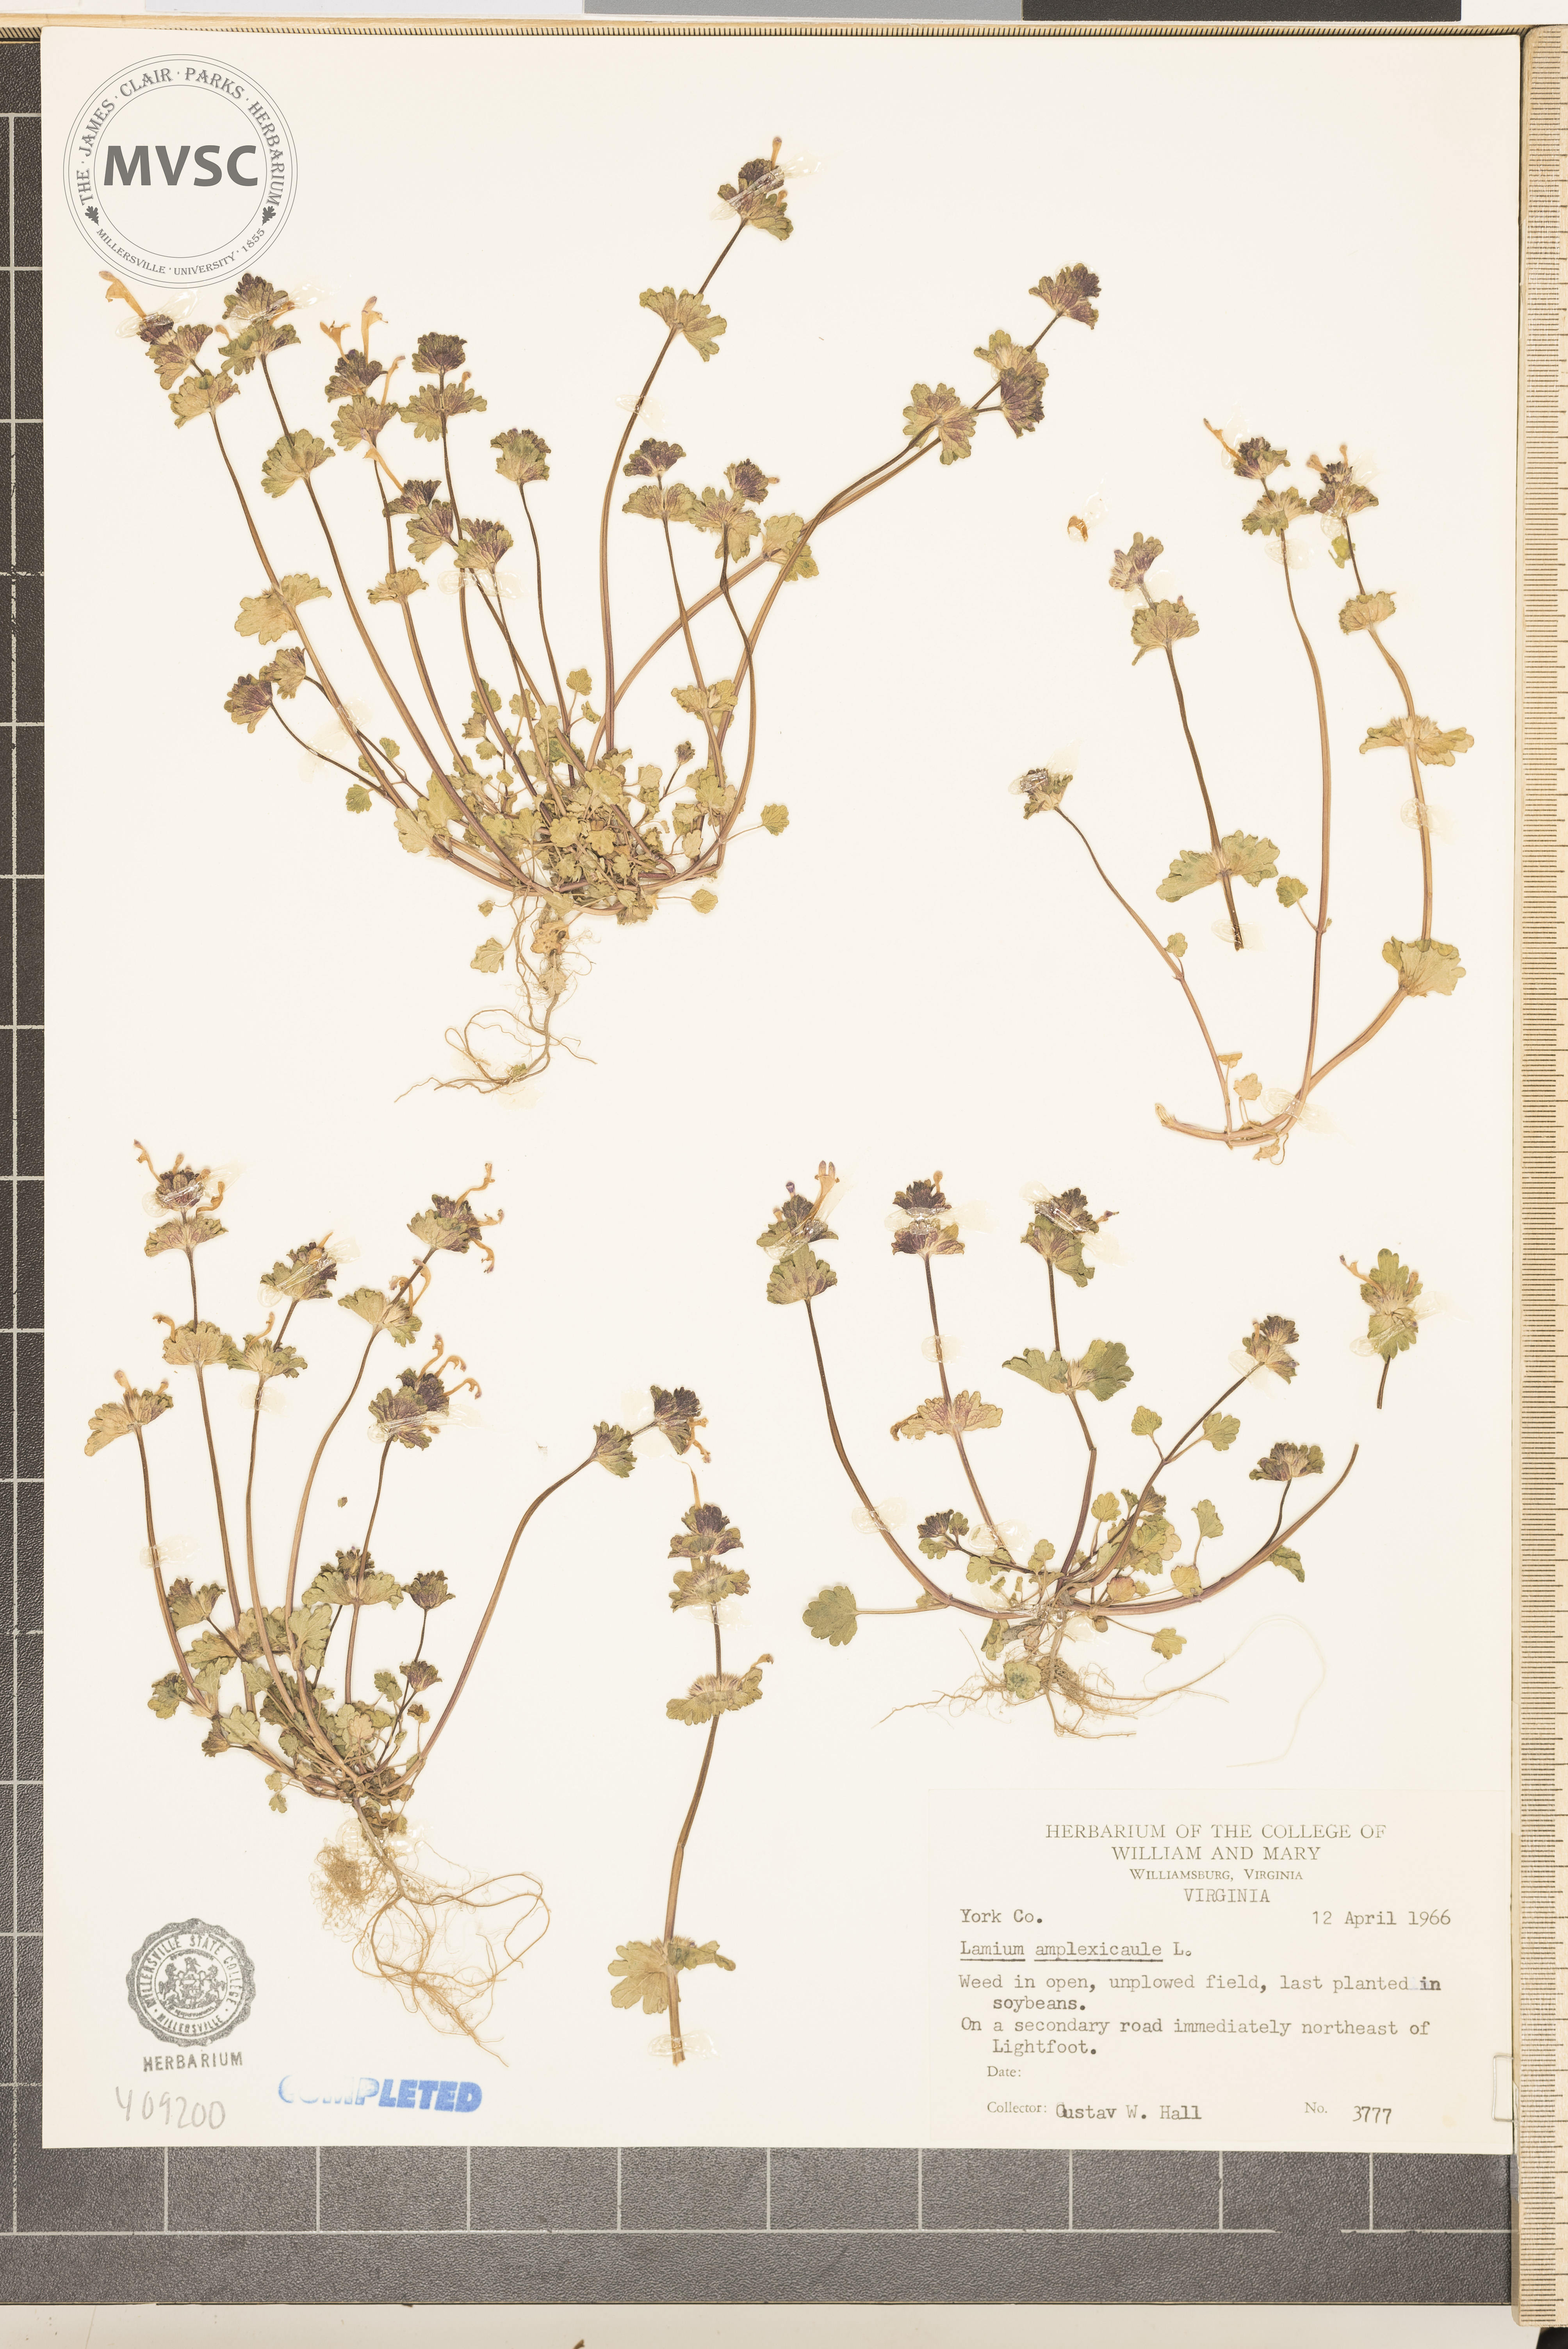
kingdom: Plantae
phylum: Tracheophyta
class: Magnoliopsida
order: Lamiales
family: Lamiaceae
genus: Lamium
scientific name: Lamium amplexicaule
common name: henbit
